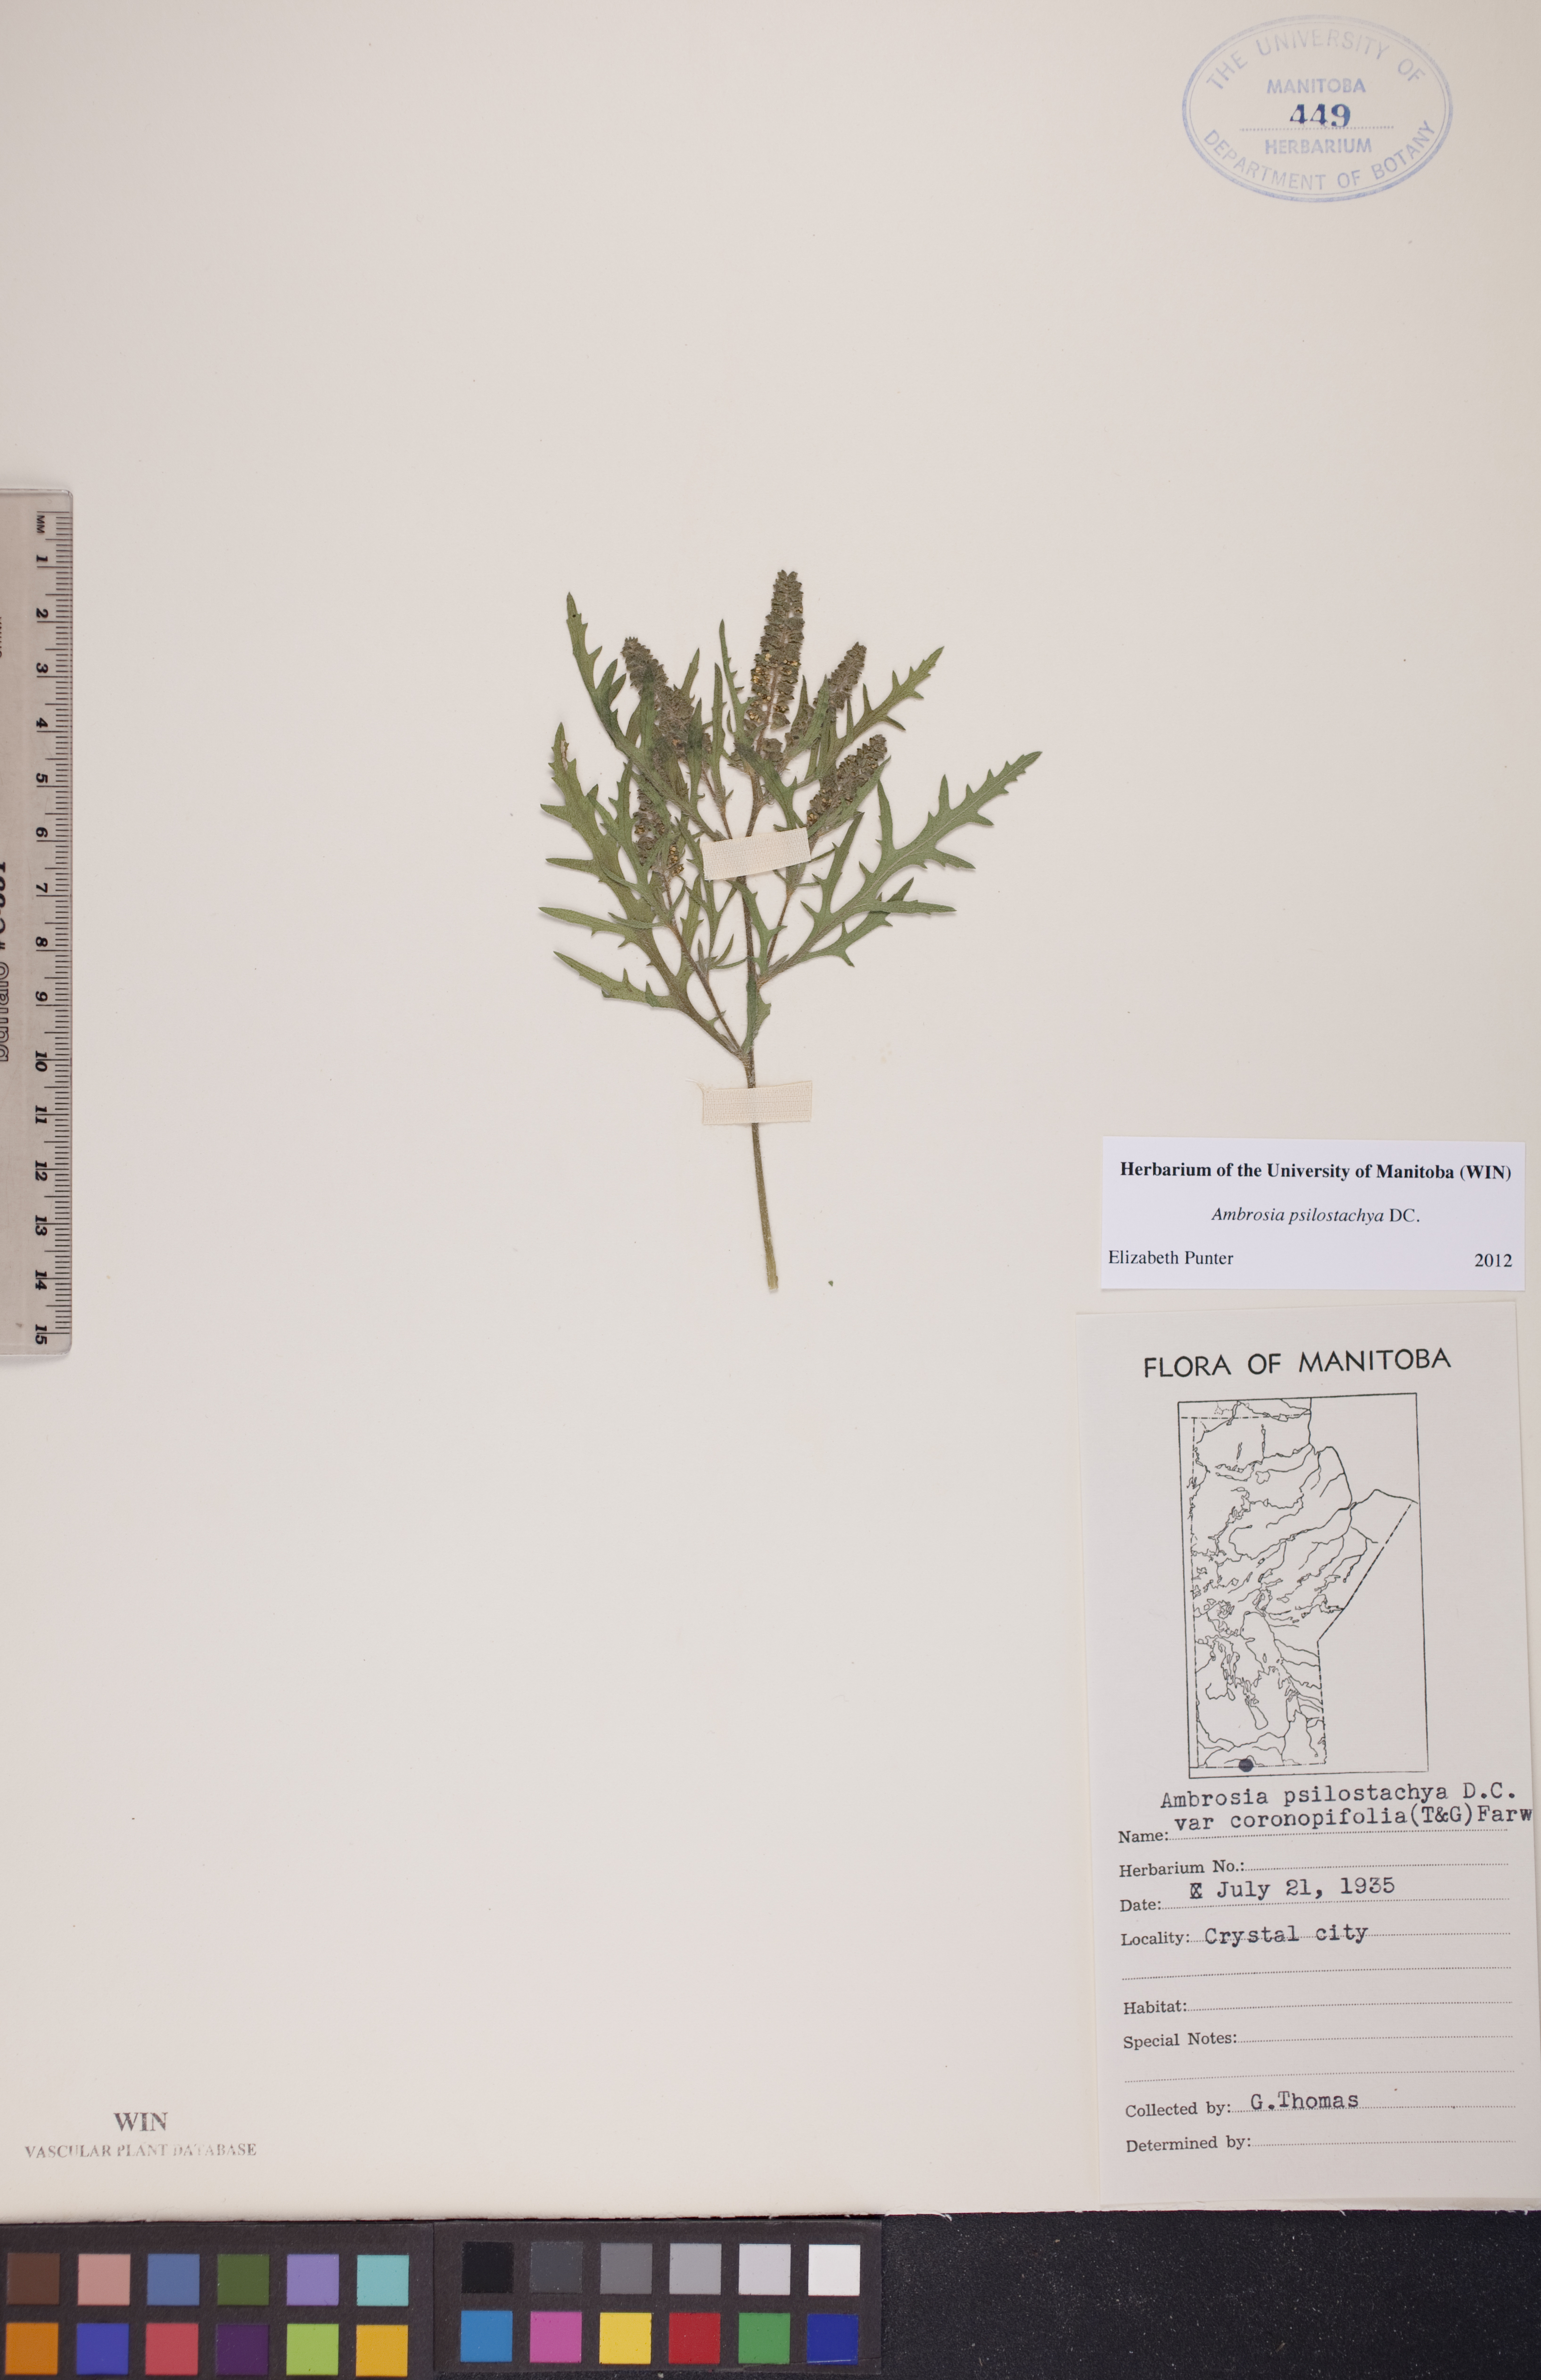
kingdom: Plantae
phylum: Tracheophyta
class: Magnoliopsida
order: Asterales
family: Asteraceae
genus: Ambrosia
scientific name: Ambrosia psilostachya
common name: Perennial ragweed
